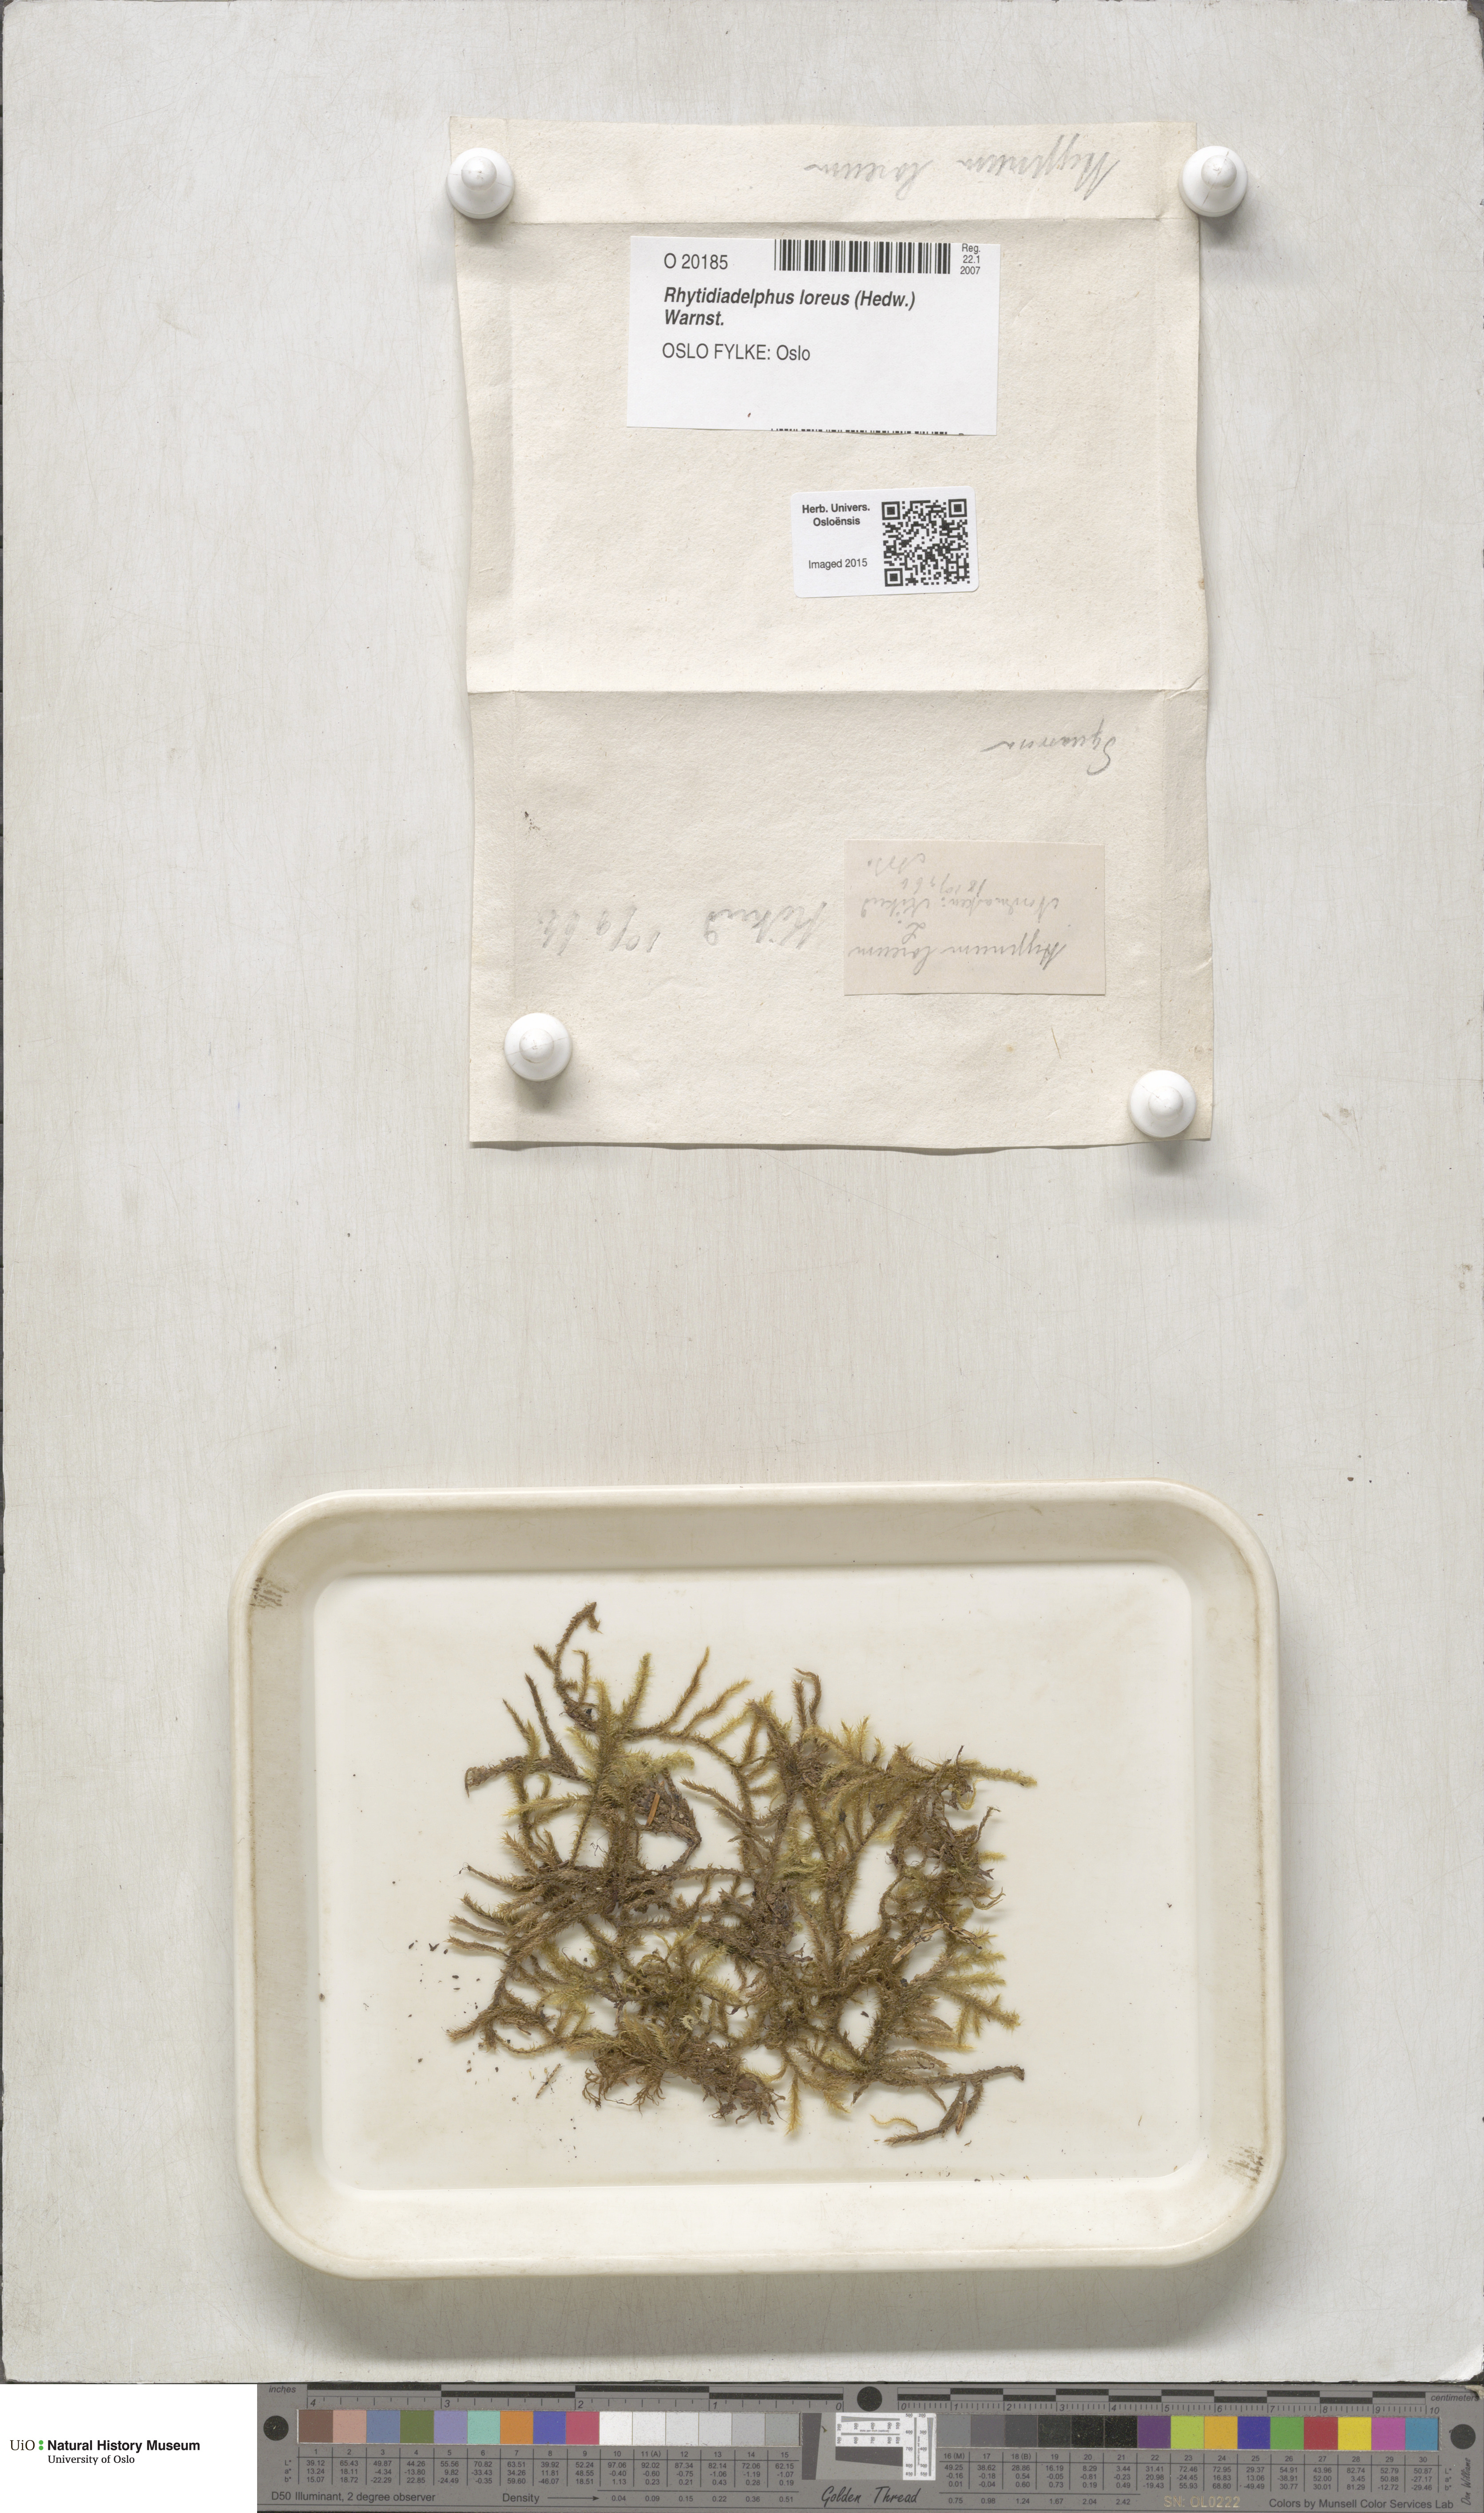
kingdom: Plantae
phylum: Bryophyta
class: Bryopsida
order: Hypnales
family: Hylocomiaceae
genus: Rhytidiadelphus
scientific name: Rhytidiadelphus loreus
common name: Lanky moss
